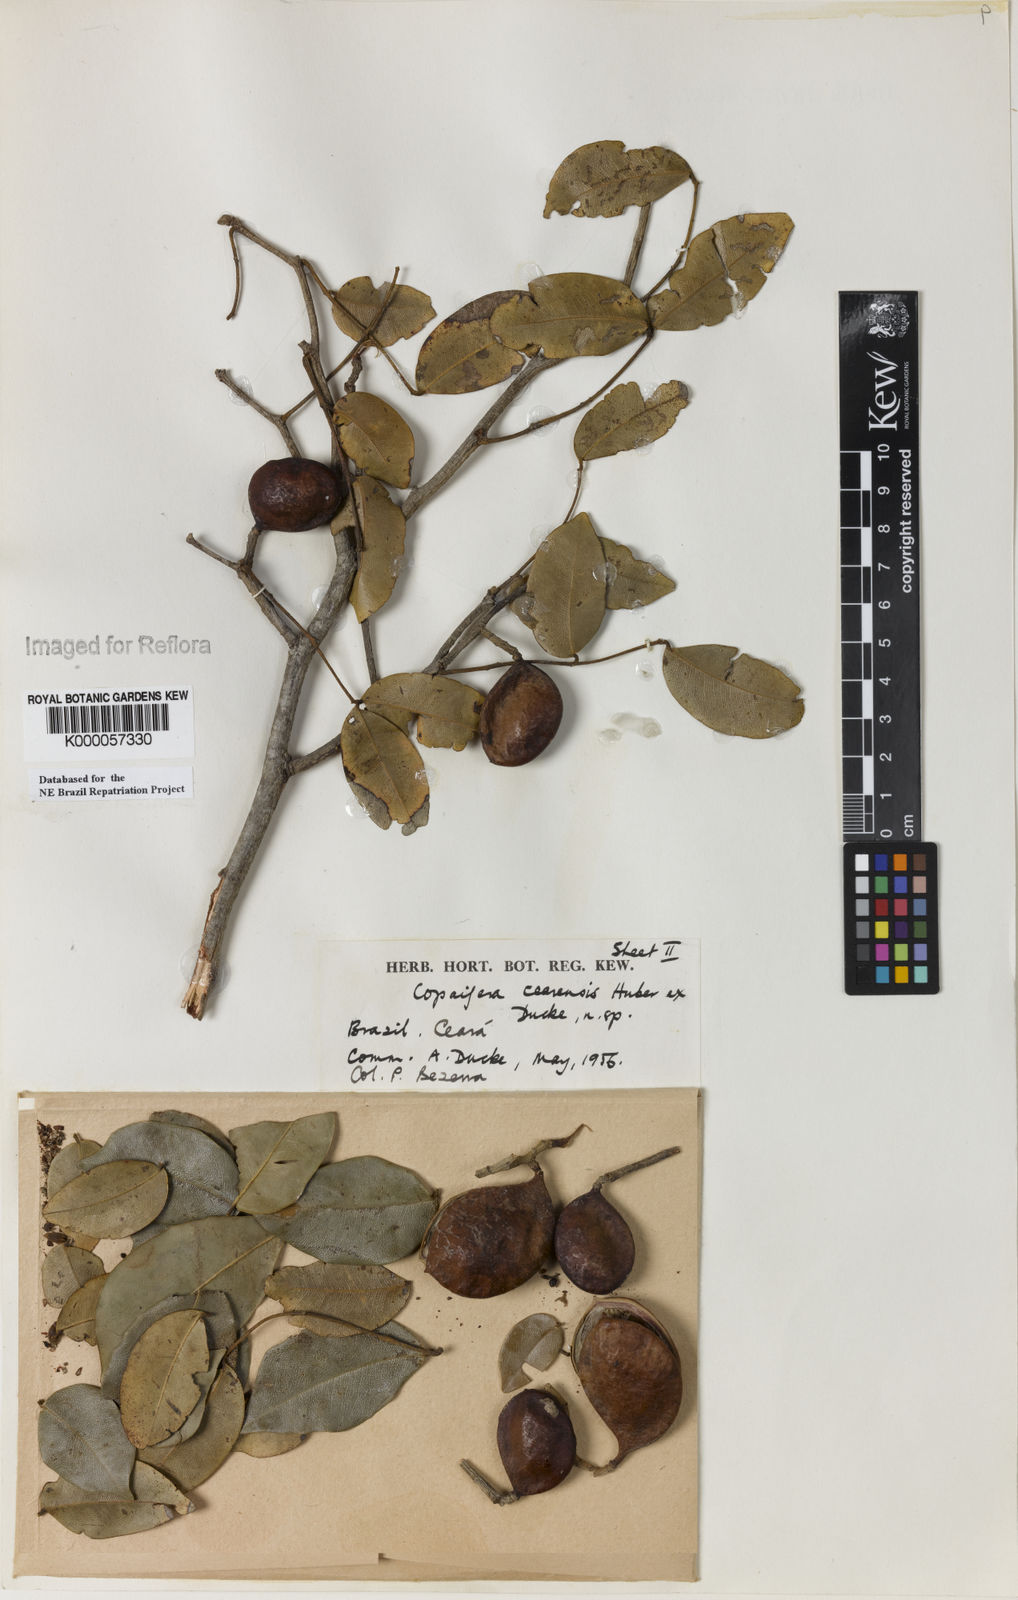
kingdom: Plantae
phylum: Tracheophyta
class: Magnoliopsida
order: Fabales
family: Fabaceae
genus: Copaifera
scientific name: Copaifera duckei
